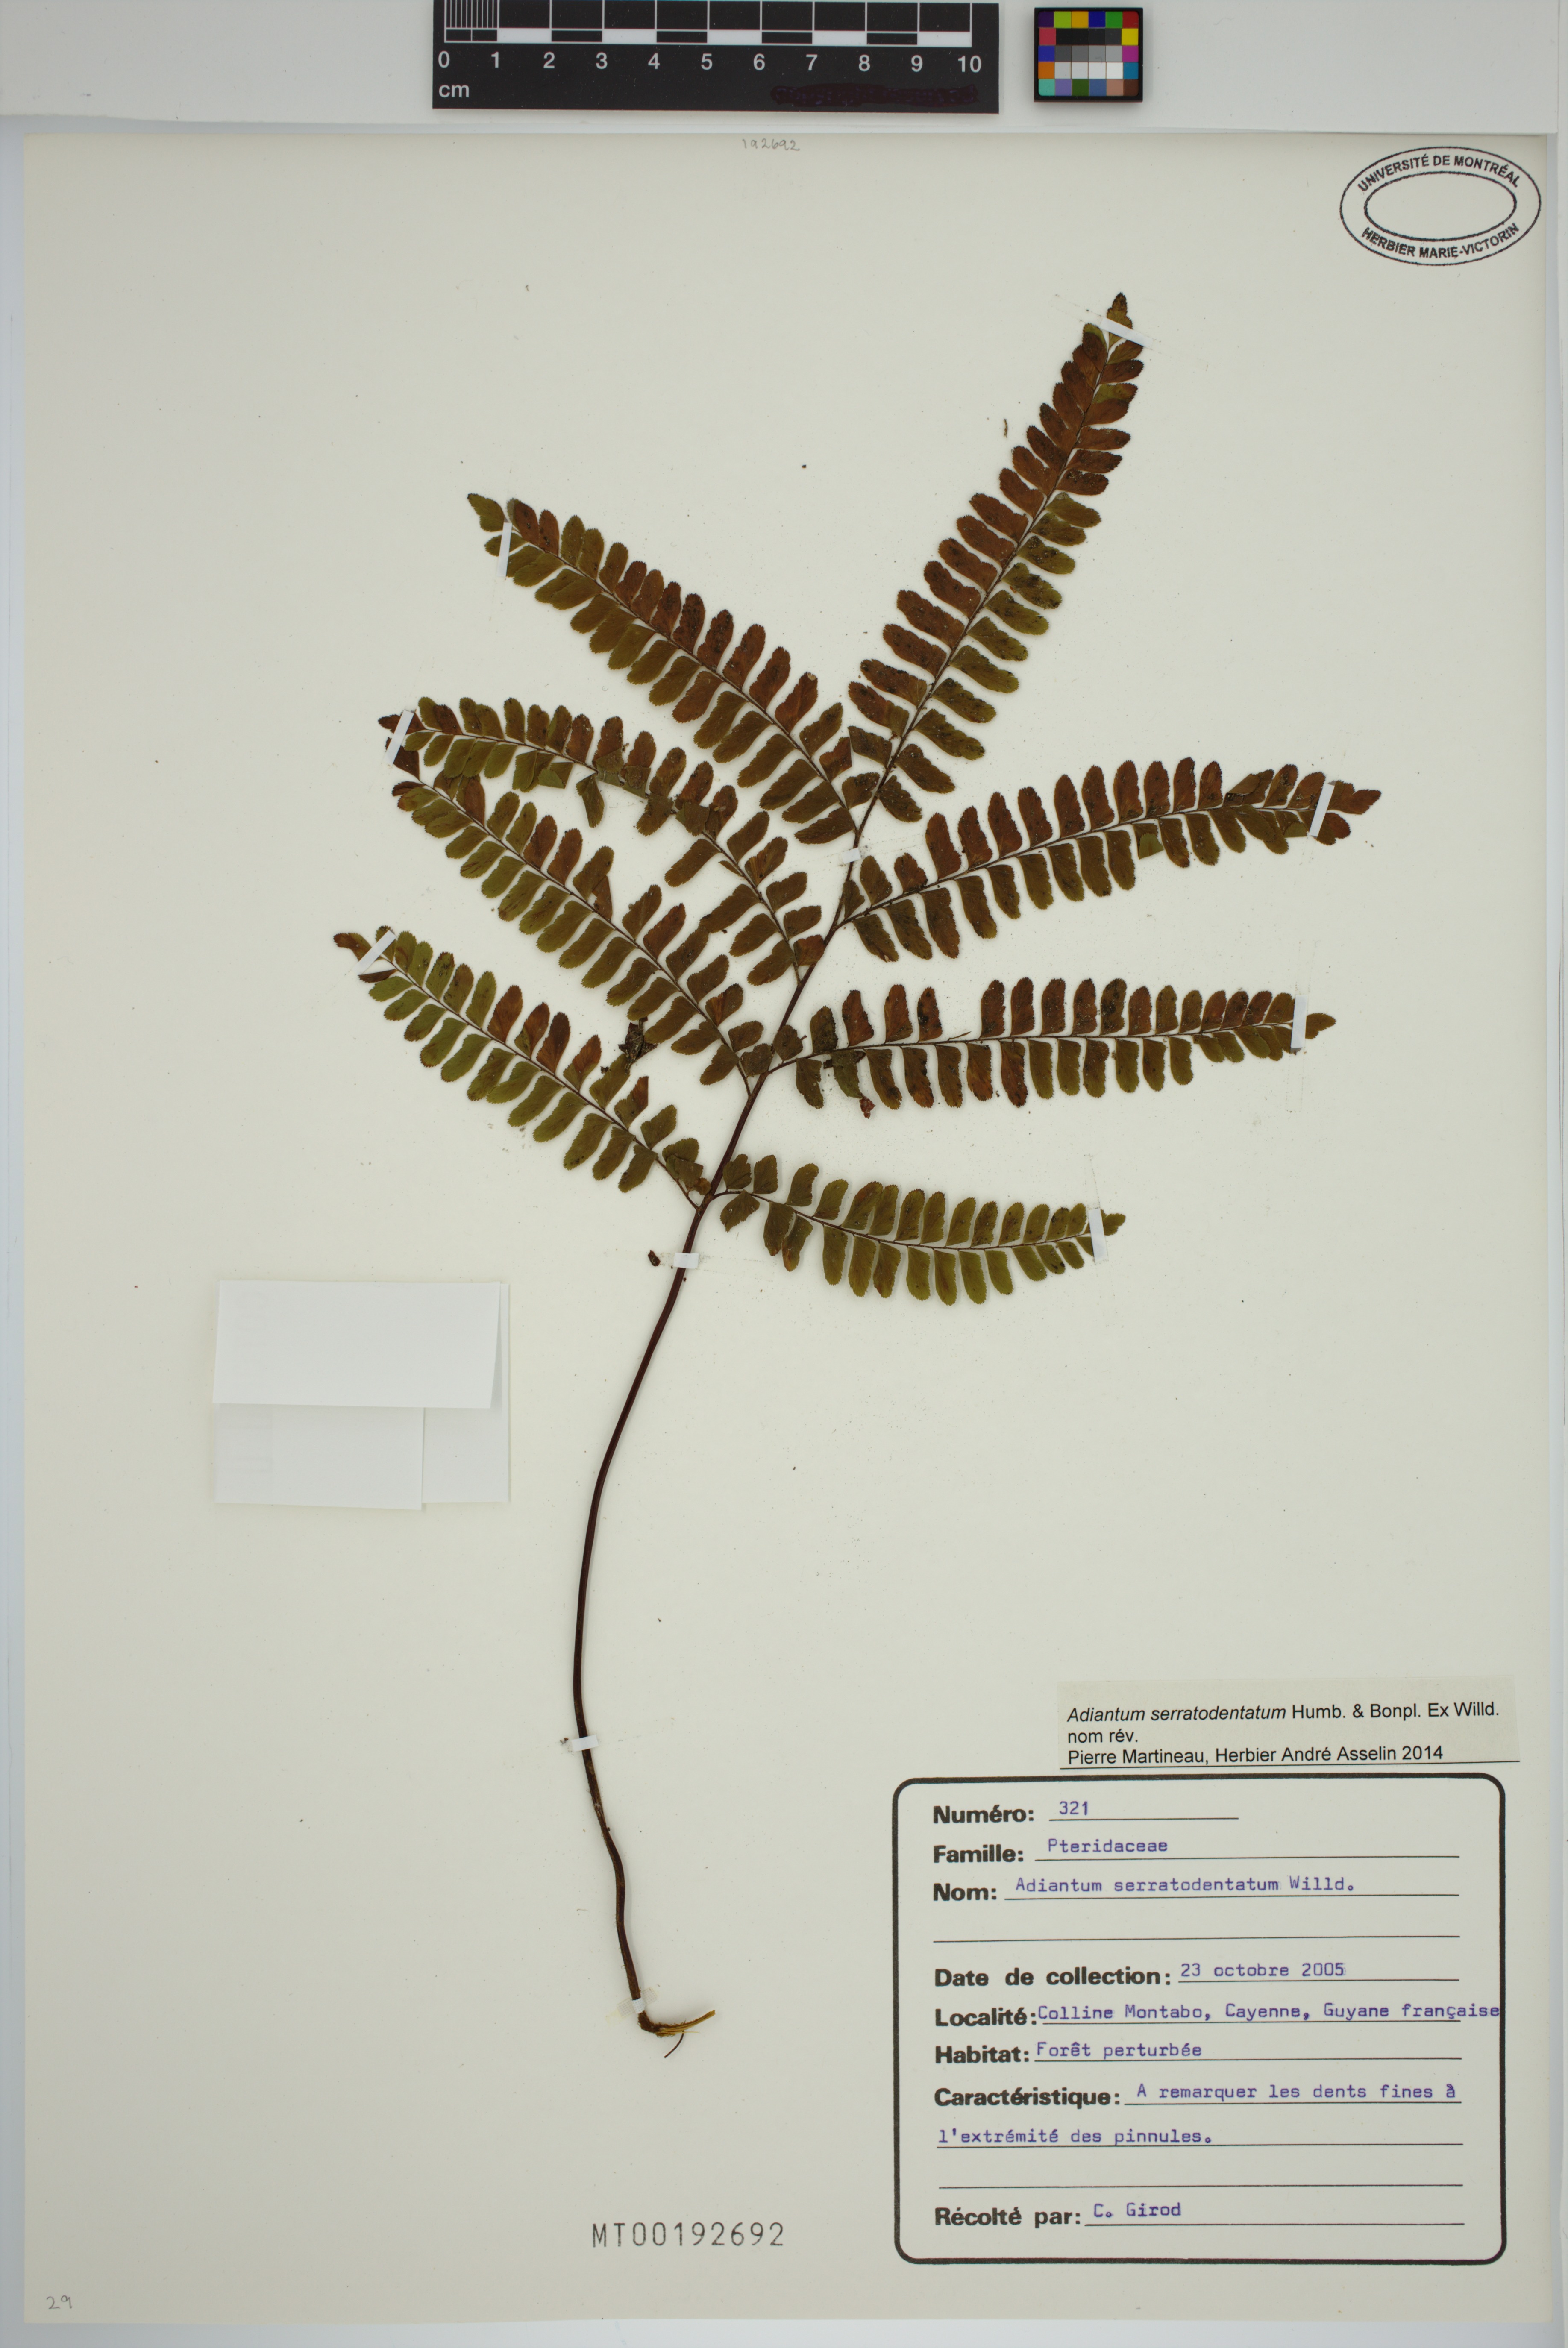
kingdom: Plantae
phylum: Tracheophyta
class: Polypodiopsida
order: Polypodiales
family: Pteridaceae
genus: Adiantum
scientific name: Adiantum serratodentatum
